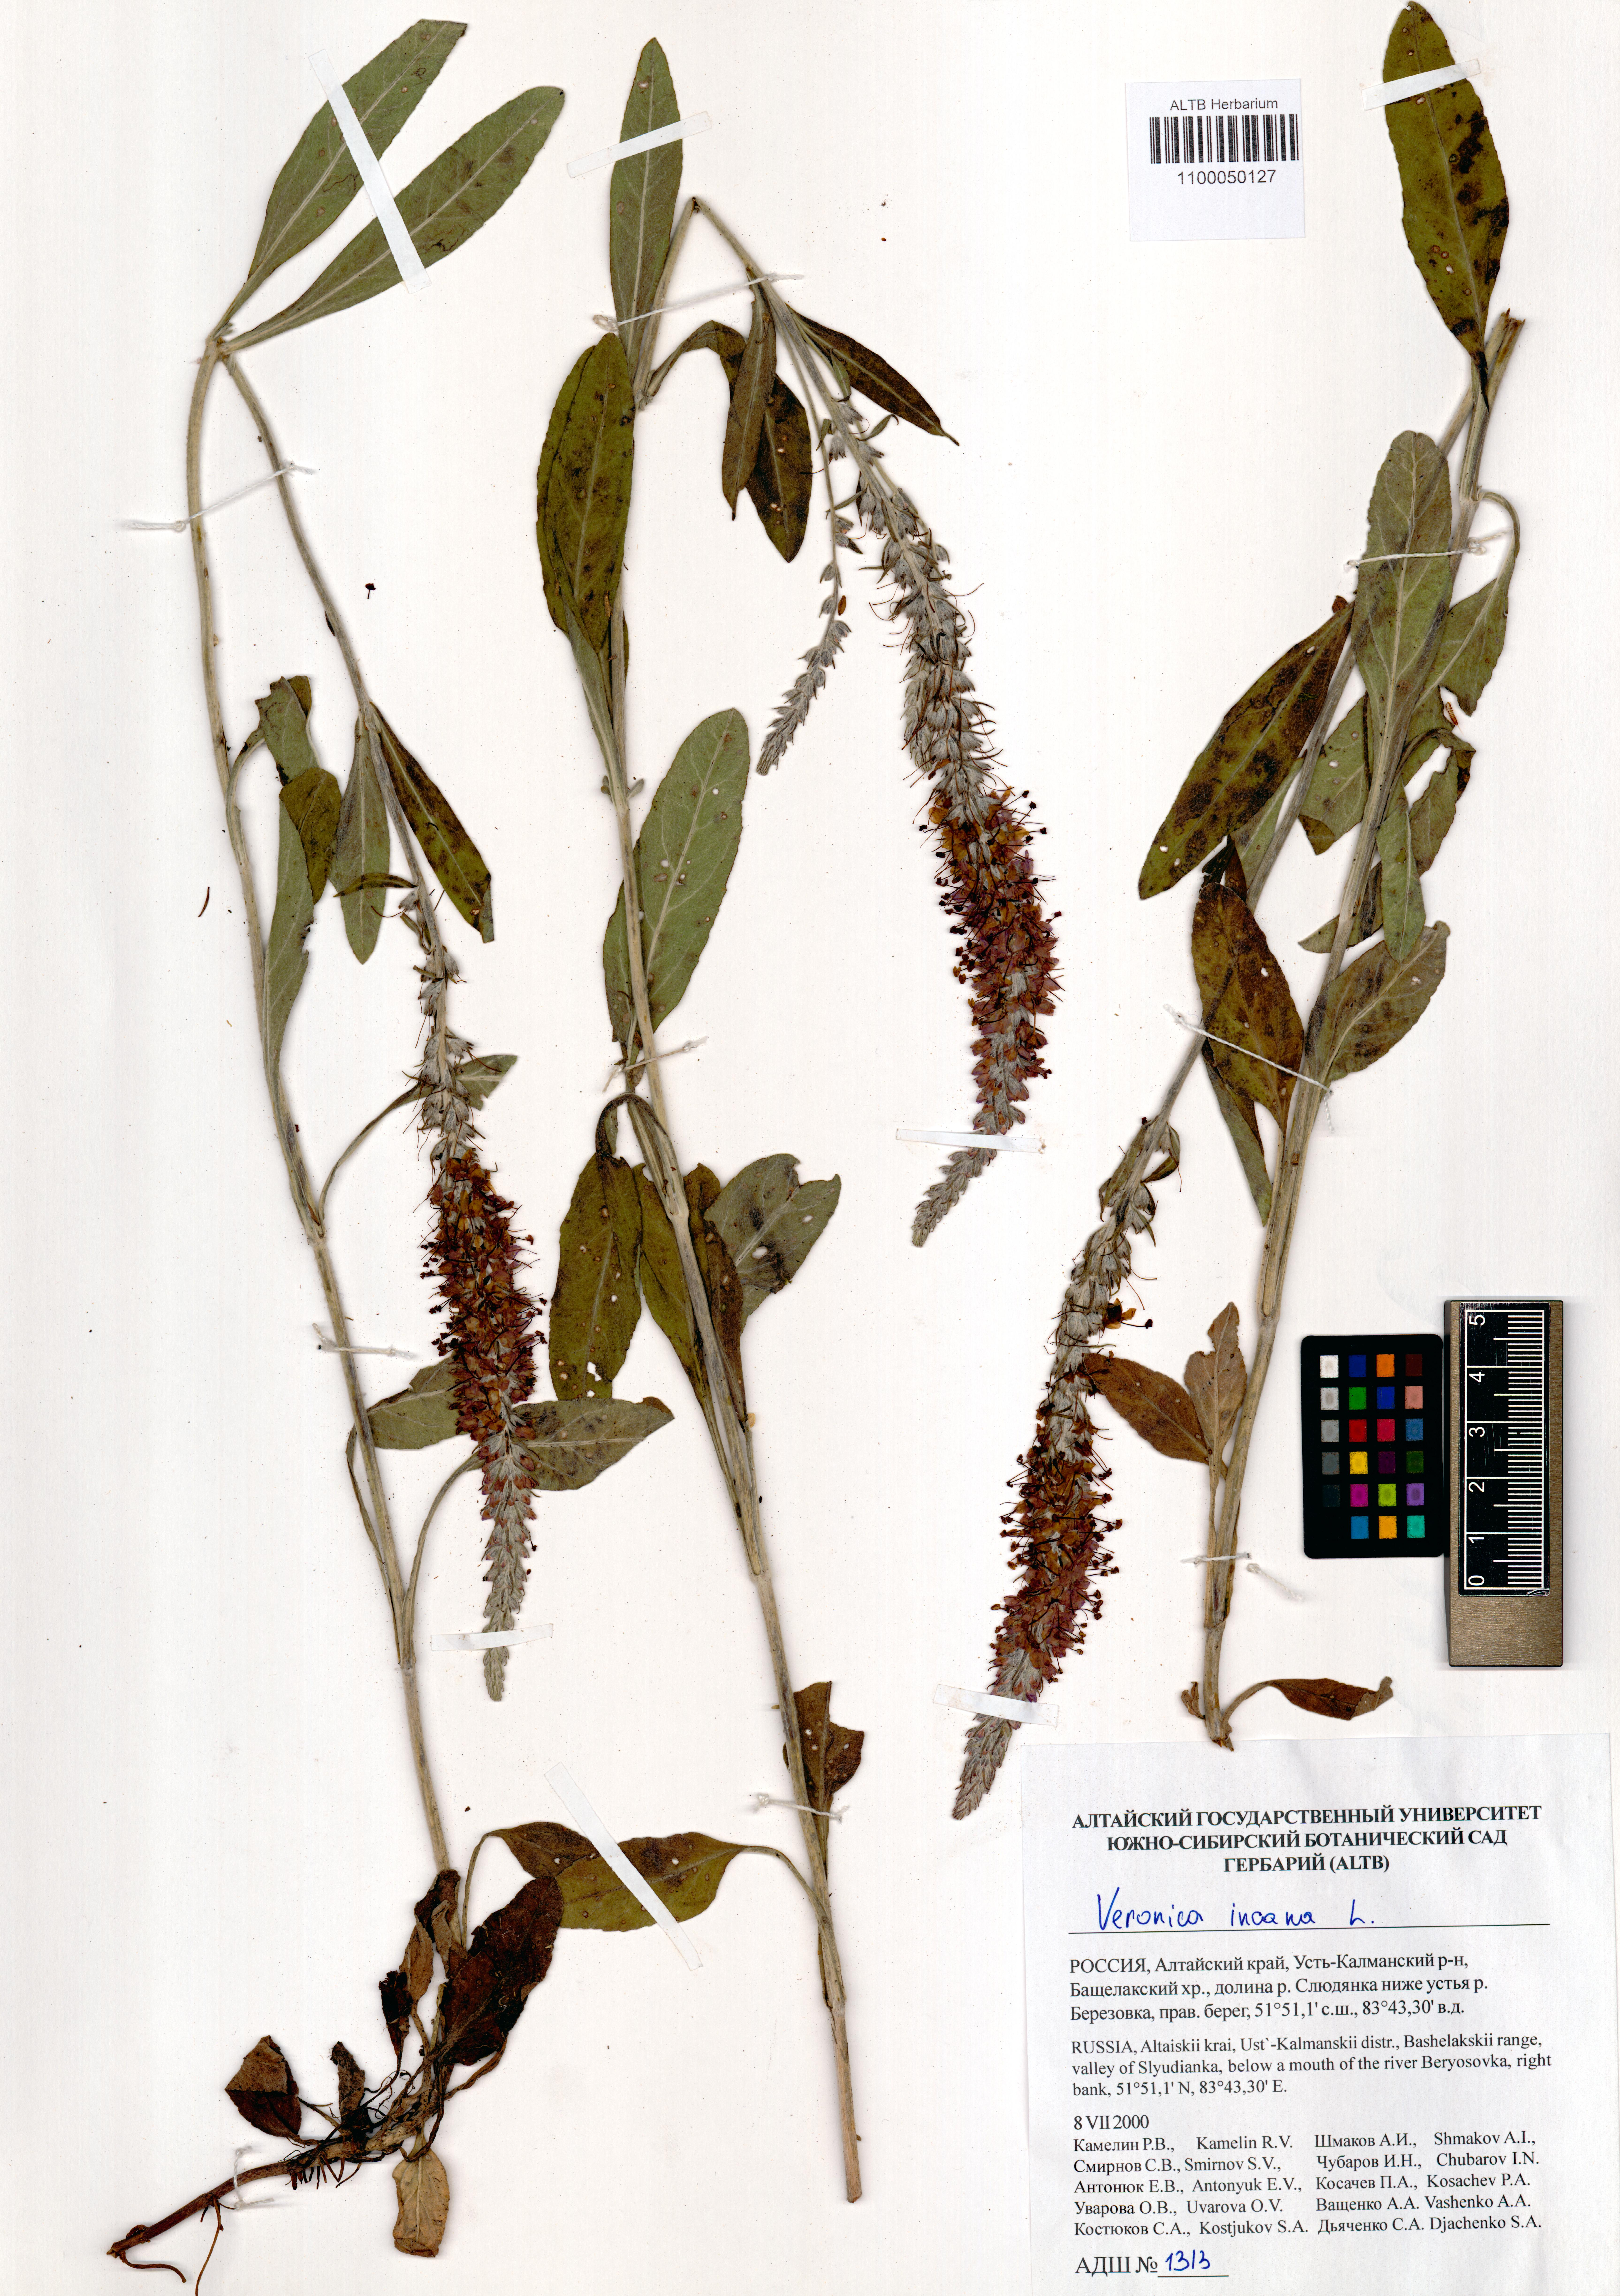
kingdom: Plantae
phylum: Tracheophyta
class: Magnoliopsida
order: Lamiales
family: Plantaginaceae
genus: Veronica
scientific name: Veronica incana
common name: Silver speedwell
